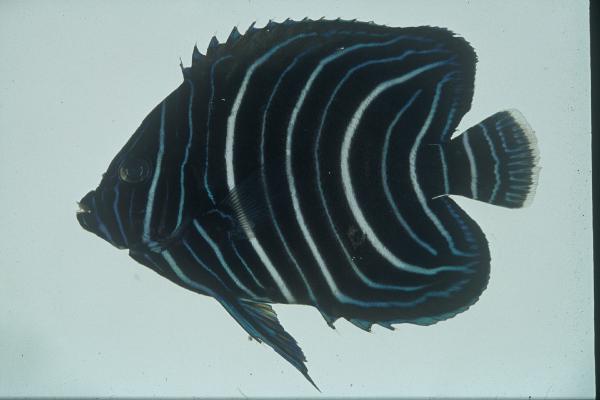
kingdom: Animalia
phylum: Chordata
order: Perciformes
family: Pomacanthidae
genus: Pomacanthus
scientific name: Pomacanthus semicirculatus
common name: Semicircle angelfish
